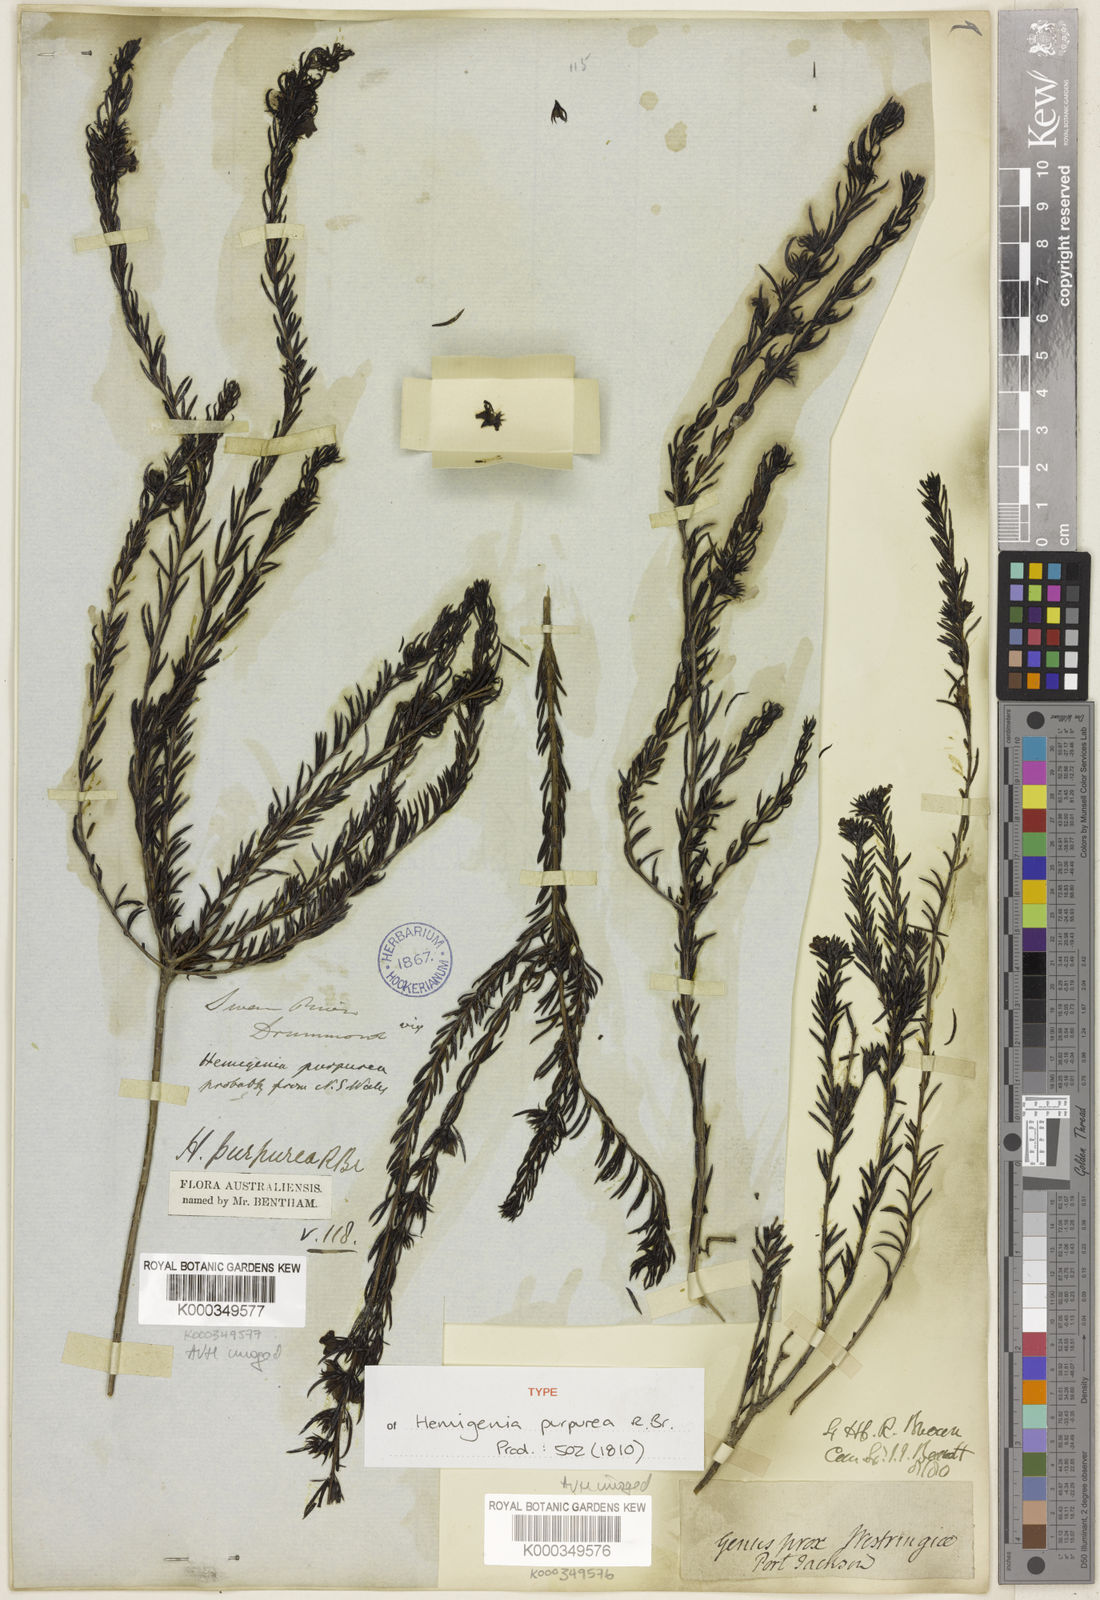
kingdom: Plantae
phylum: Tracheophyta
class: Magnoliopsida
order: Lamiales
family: Lamiaceae
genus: Hemigenia
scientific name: Hemigenia purpurea
